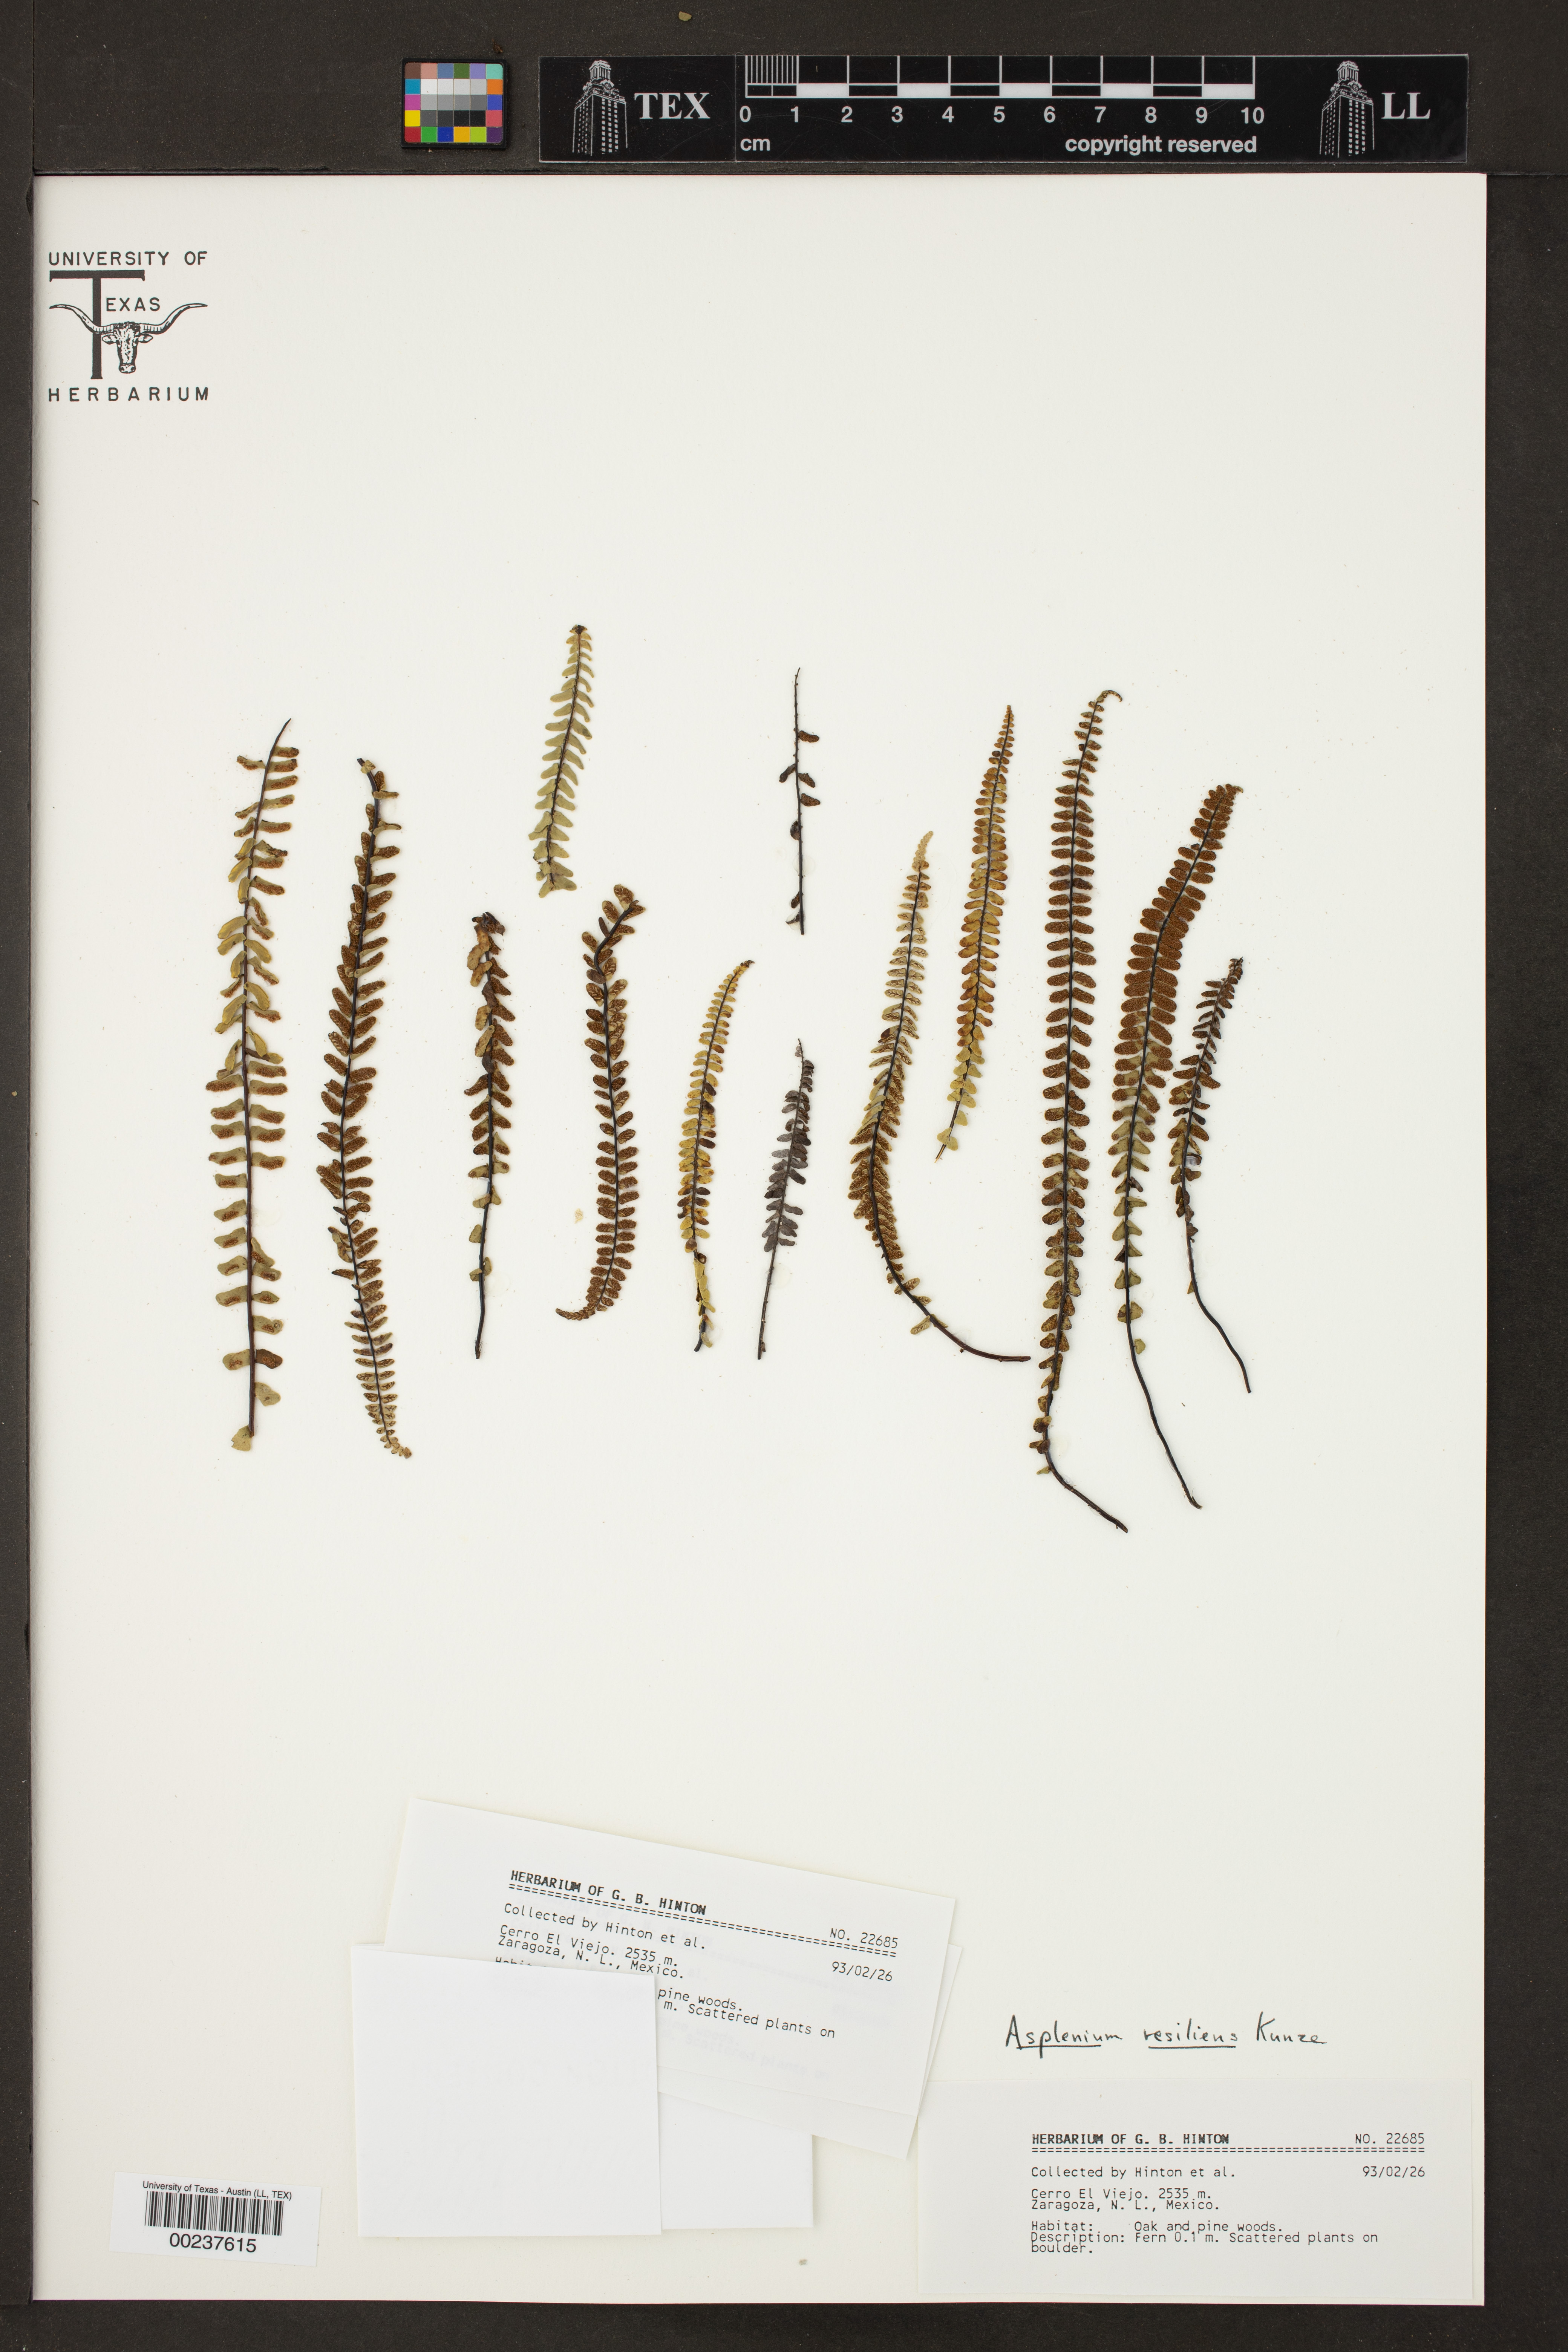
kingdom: Plantae
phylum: Tracheophyta
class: Polypodiopsida
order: Polypodiales
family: Aspleniaceae
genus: Asplenium
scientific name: Asplenium resiliens
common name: Blackstem spleenwort
